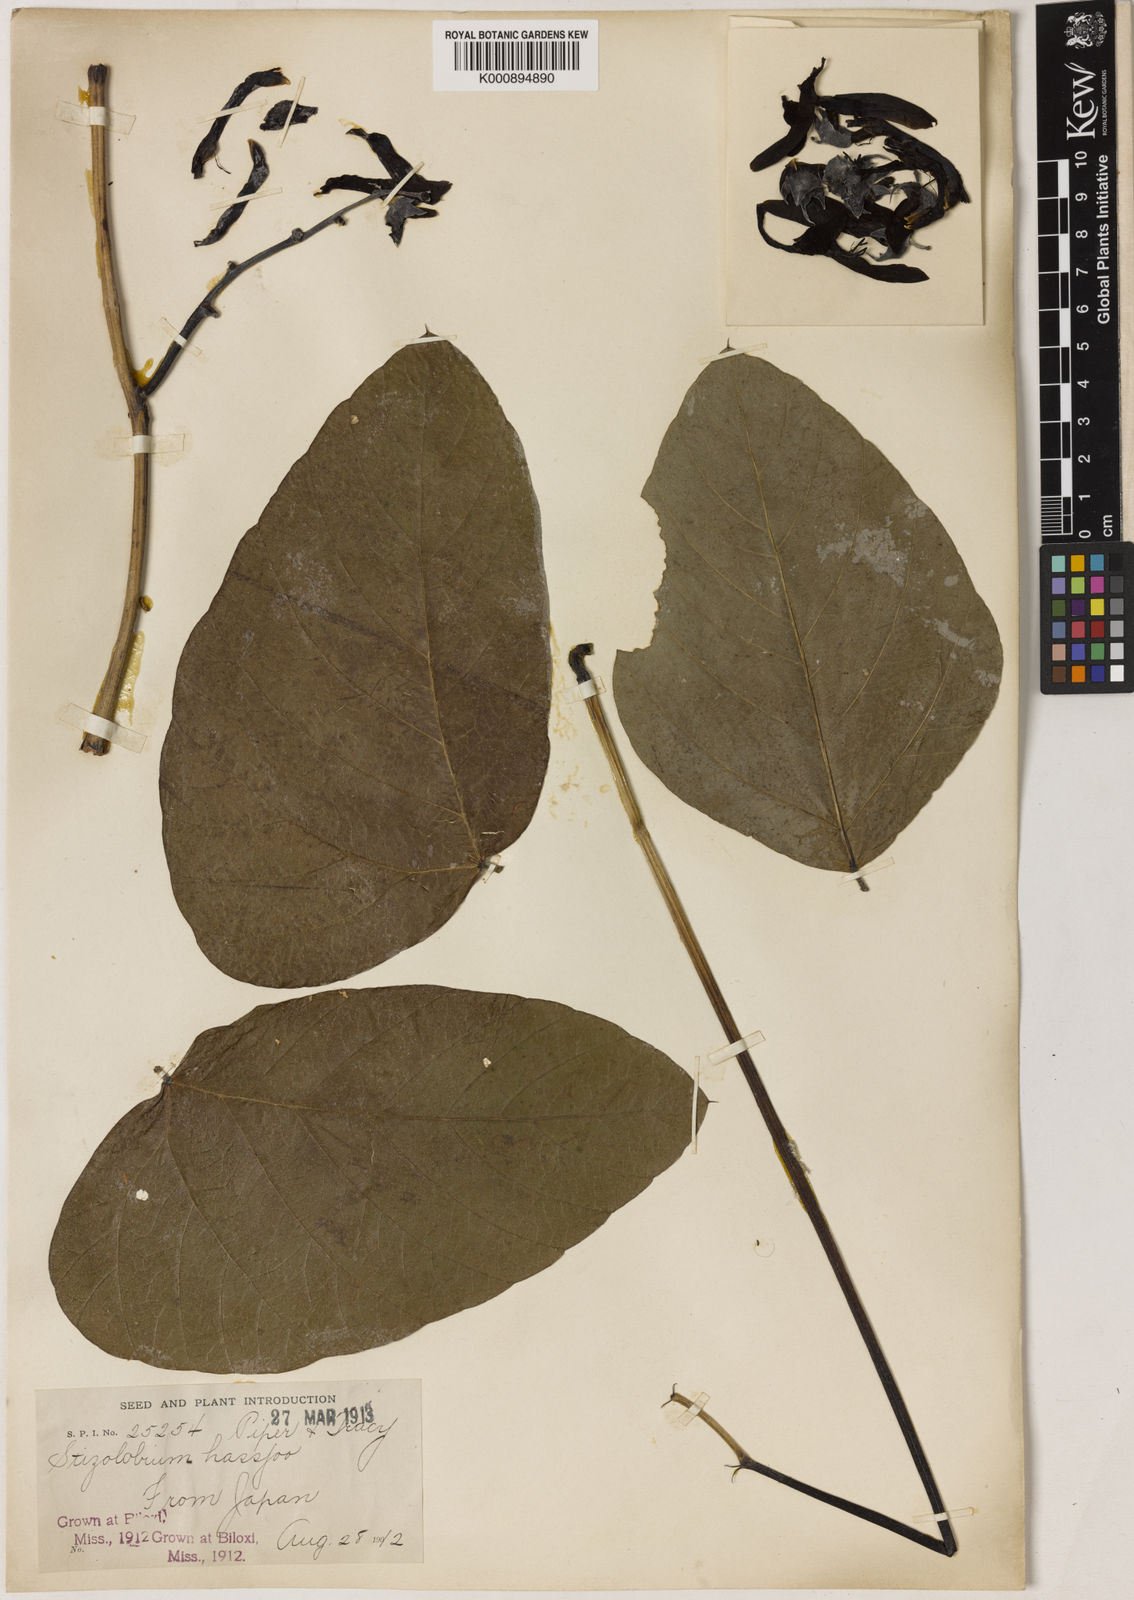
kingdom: Plantae
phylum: Tracheophyta
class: Magnoliopsida
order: Fabales
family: Fabaceae
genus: Mucuna
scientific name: Mucuna pruriens
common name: Cow-itch
